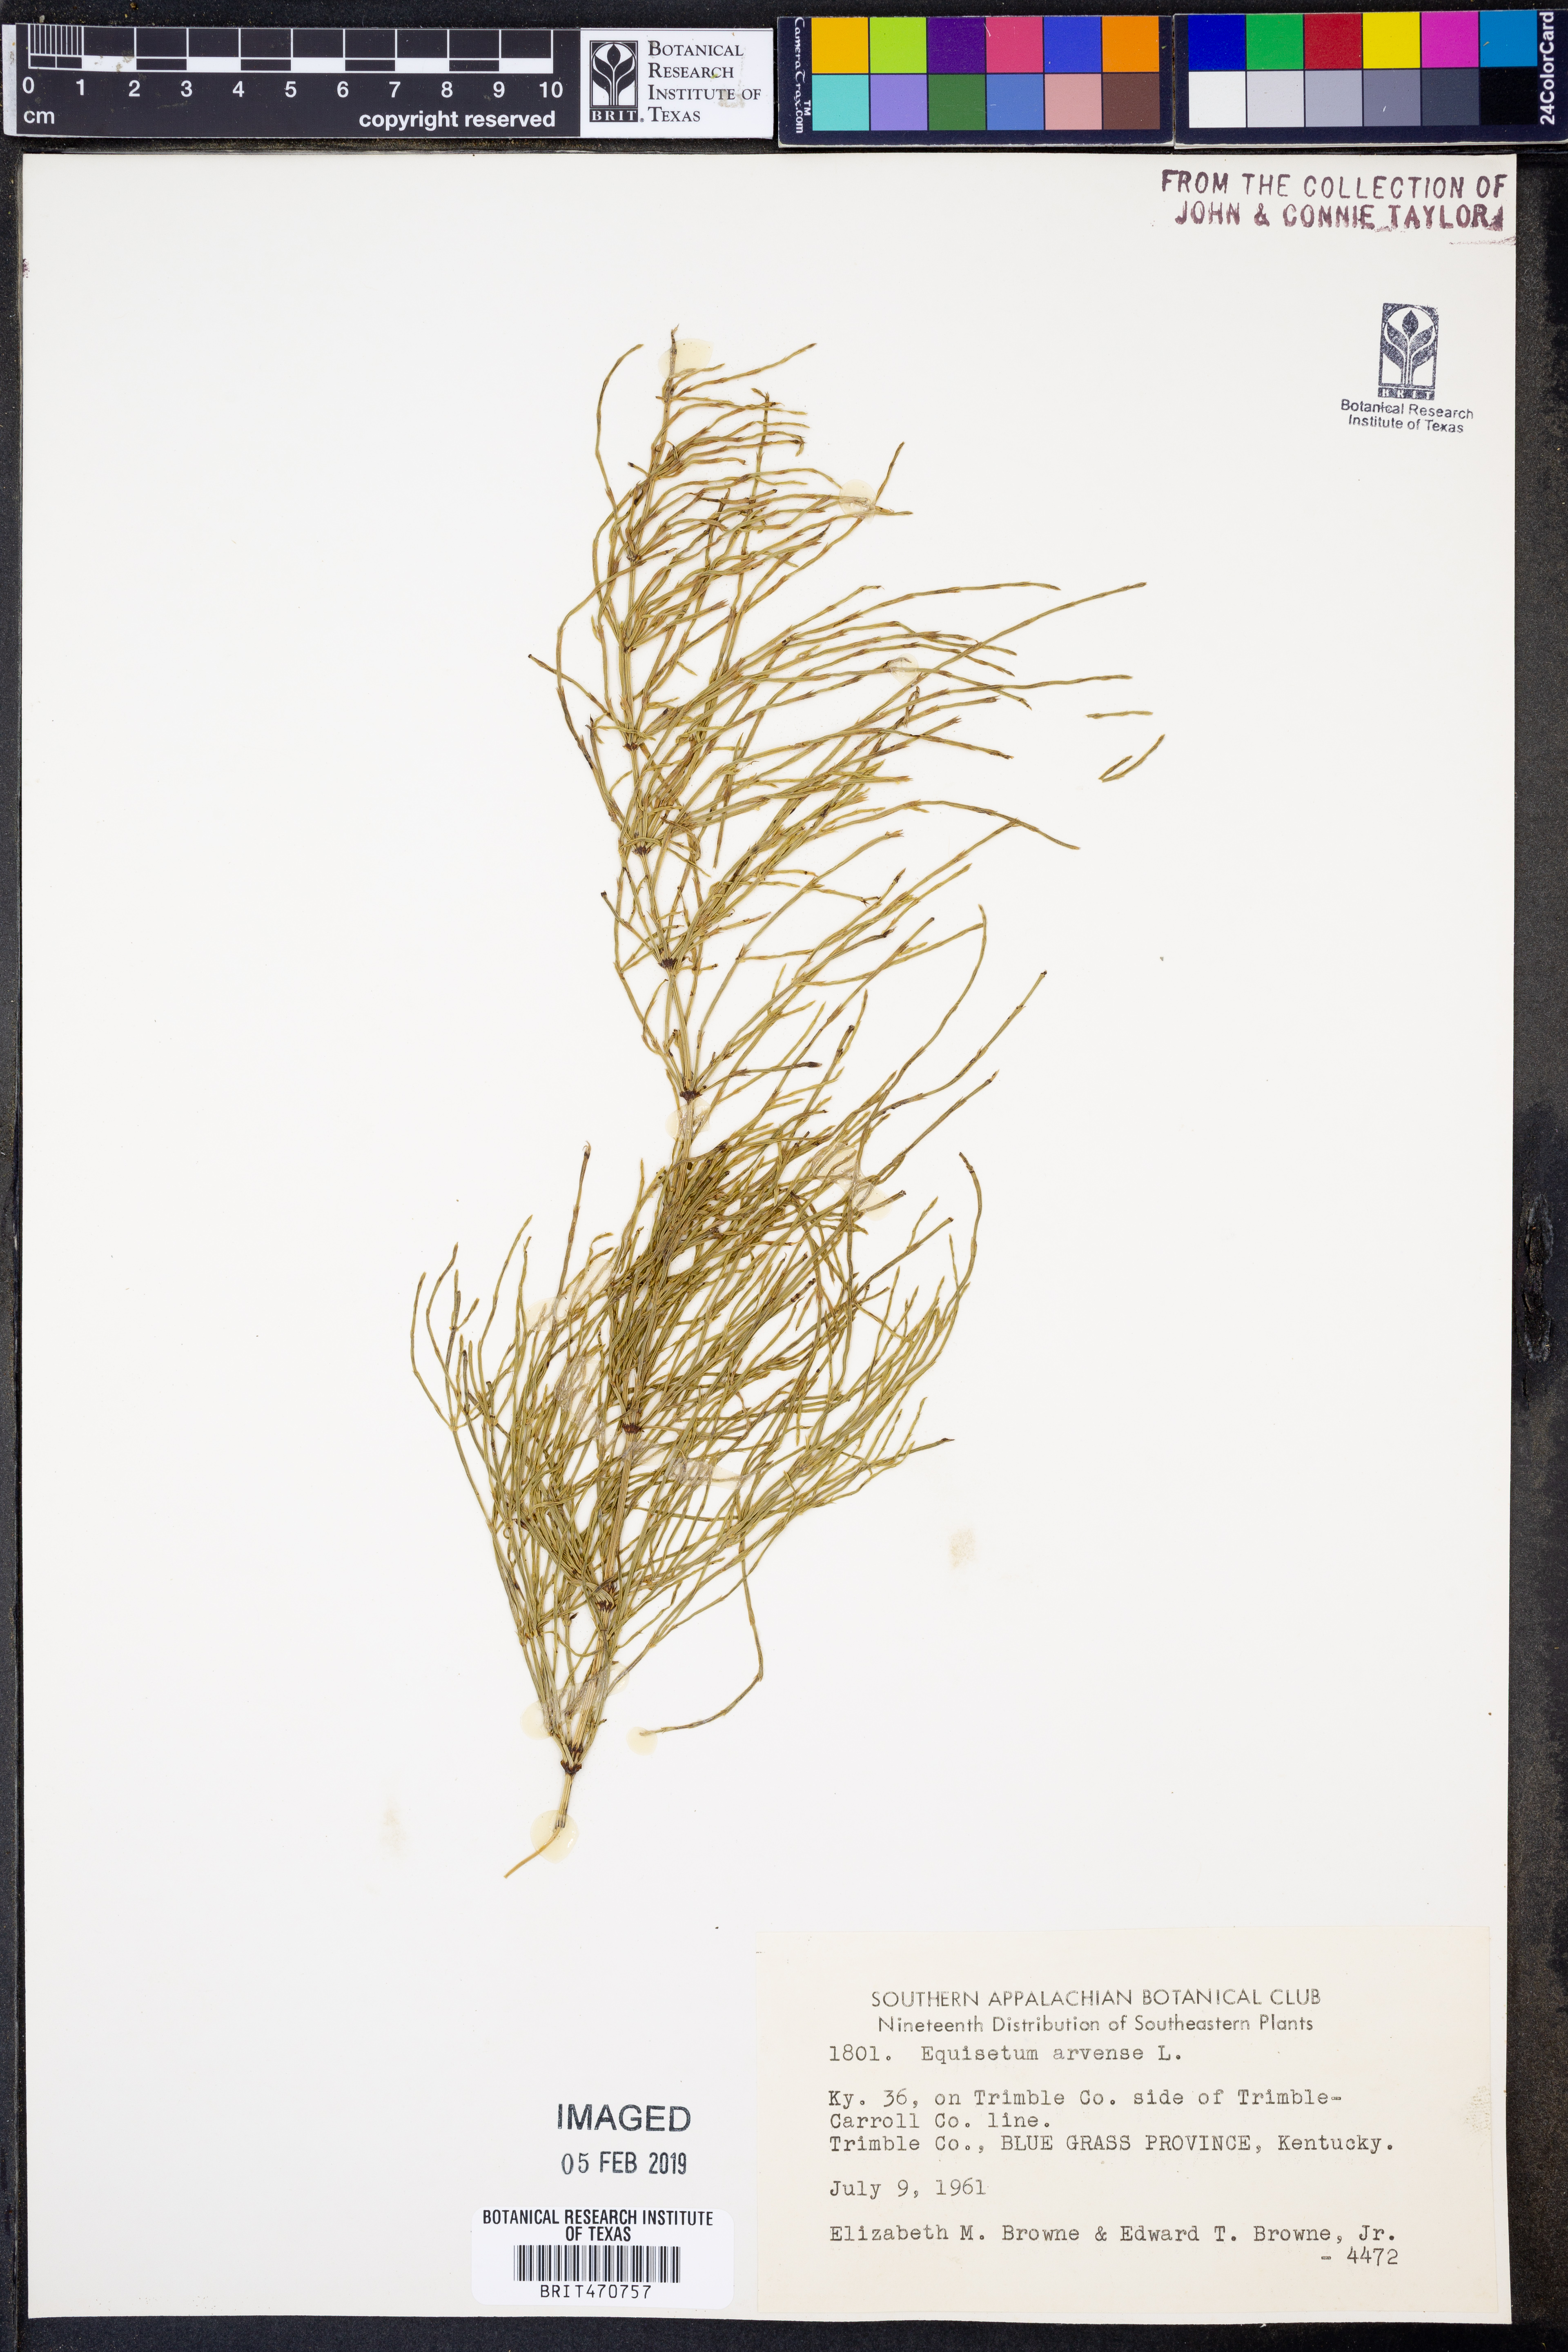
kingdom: Plantae
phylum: Tracheophyta
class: Polypodiopsida
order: Equisetales
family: Equisetaceae
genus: Equisetum
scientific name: Equisetum arvense
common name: Field horsetail
